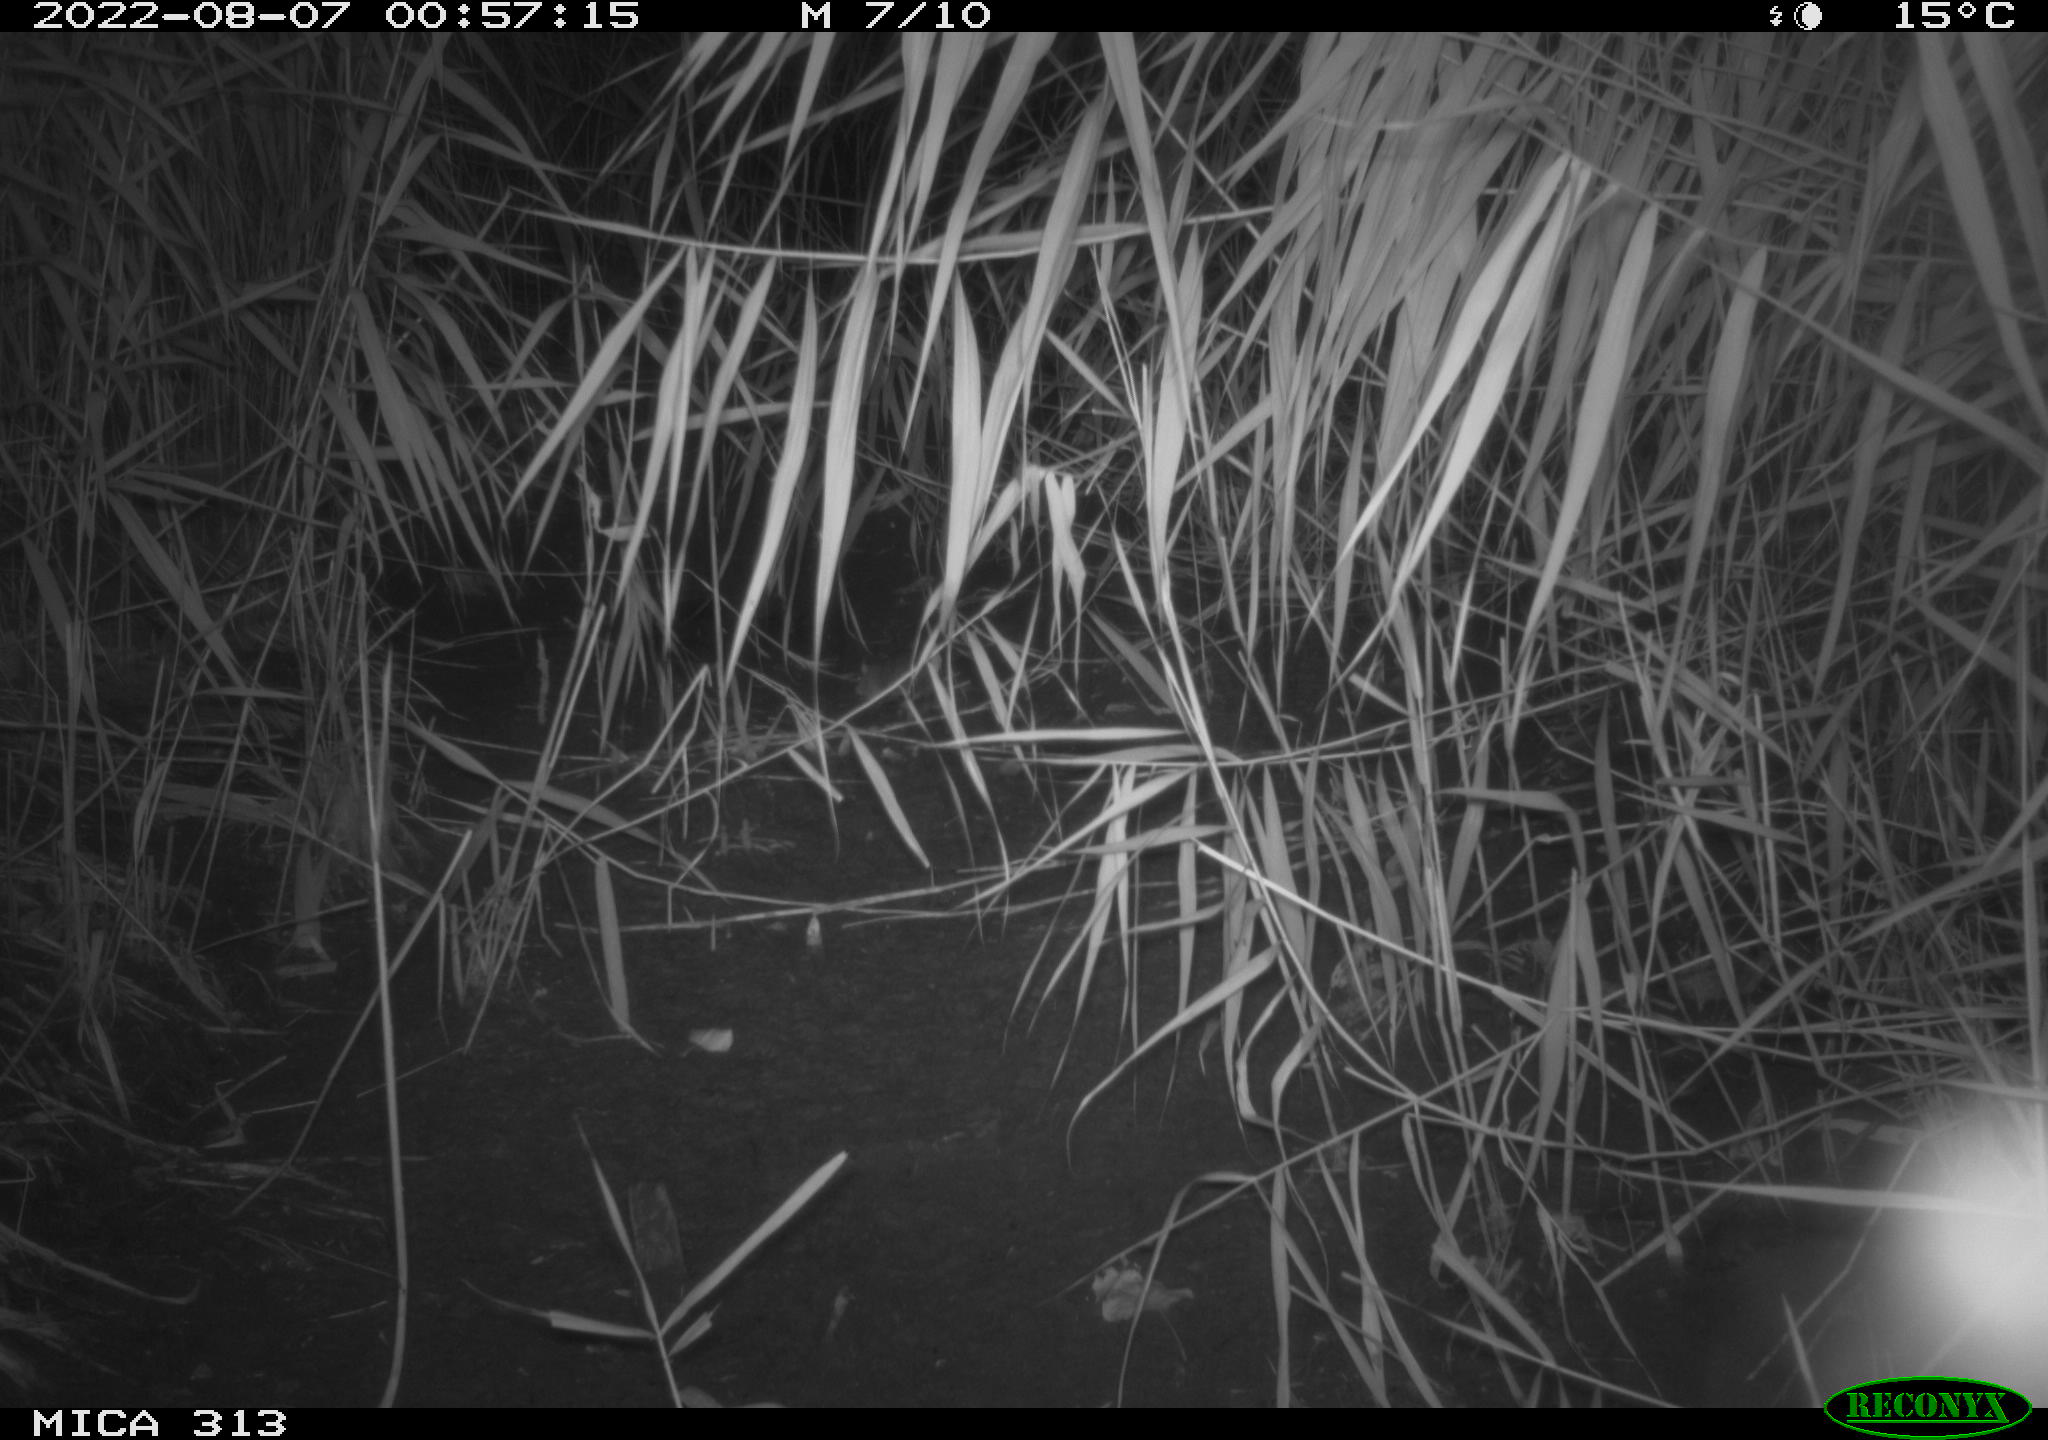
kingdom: Animalia
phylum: Chordata
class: Mammalia
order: Rodentia
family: Muridae
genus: Rattus
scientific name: Rattus norvegicus
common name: Brown rat
